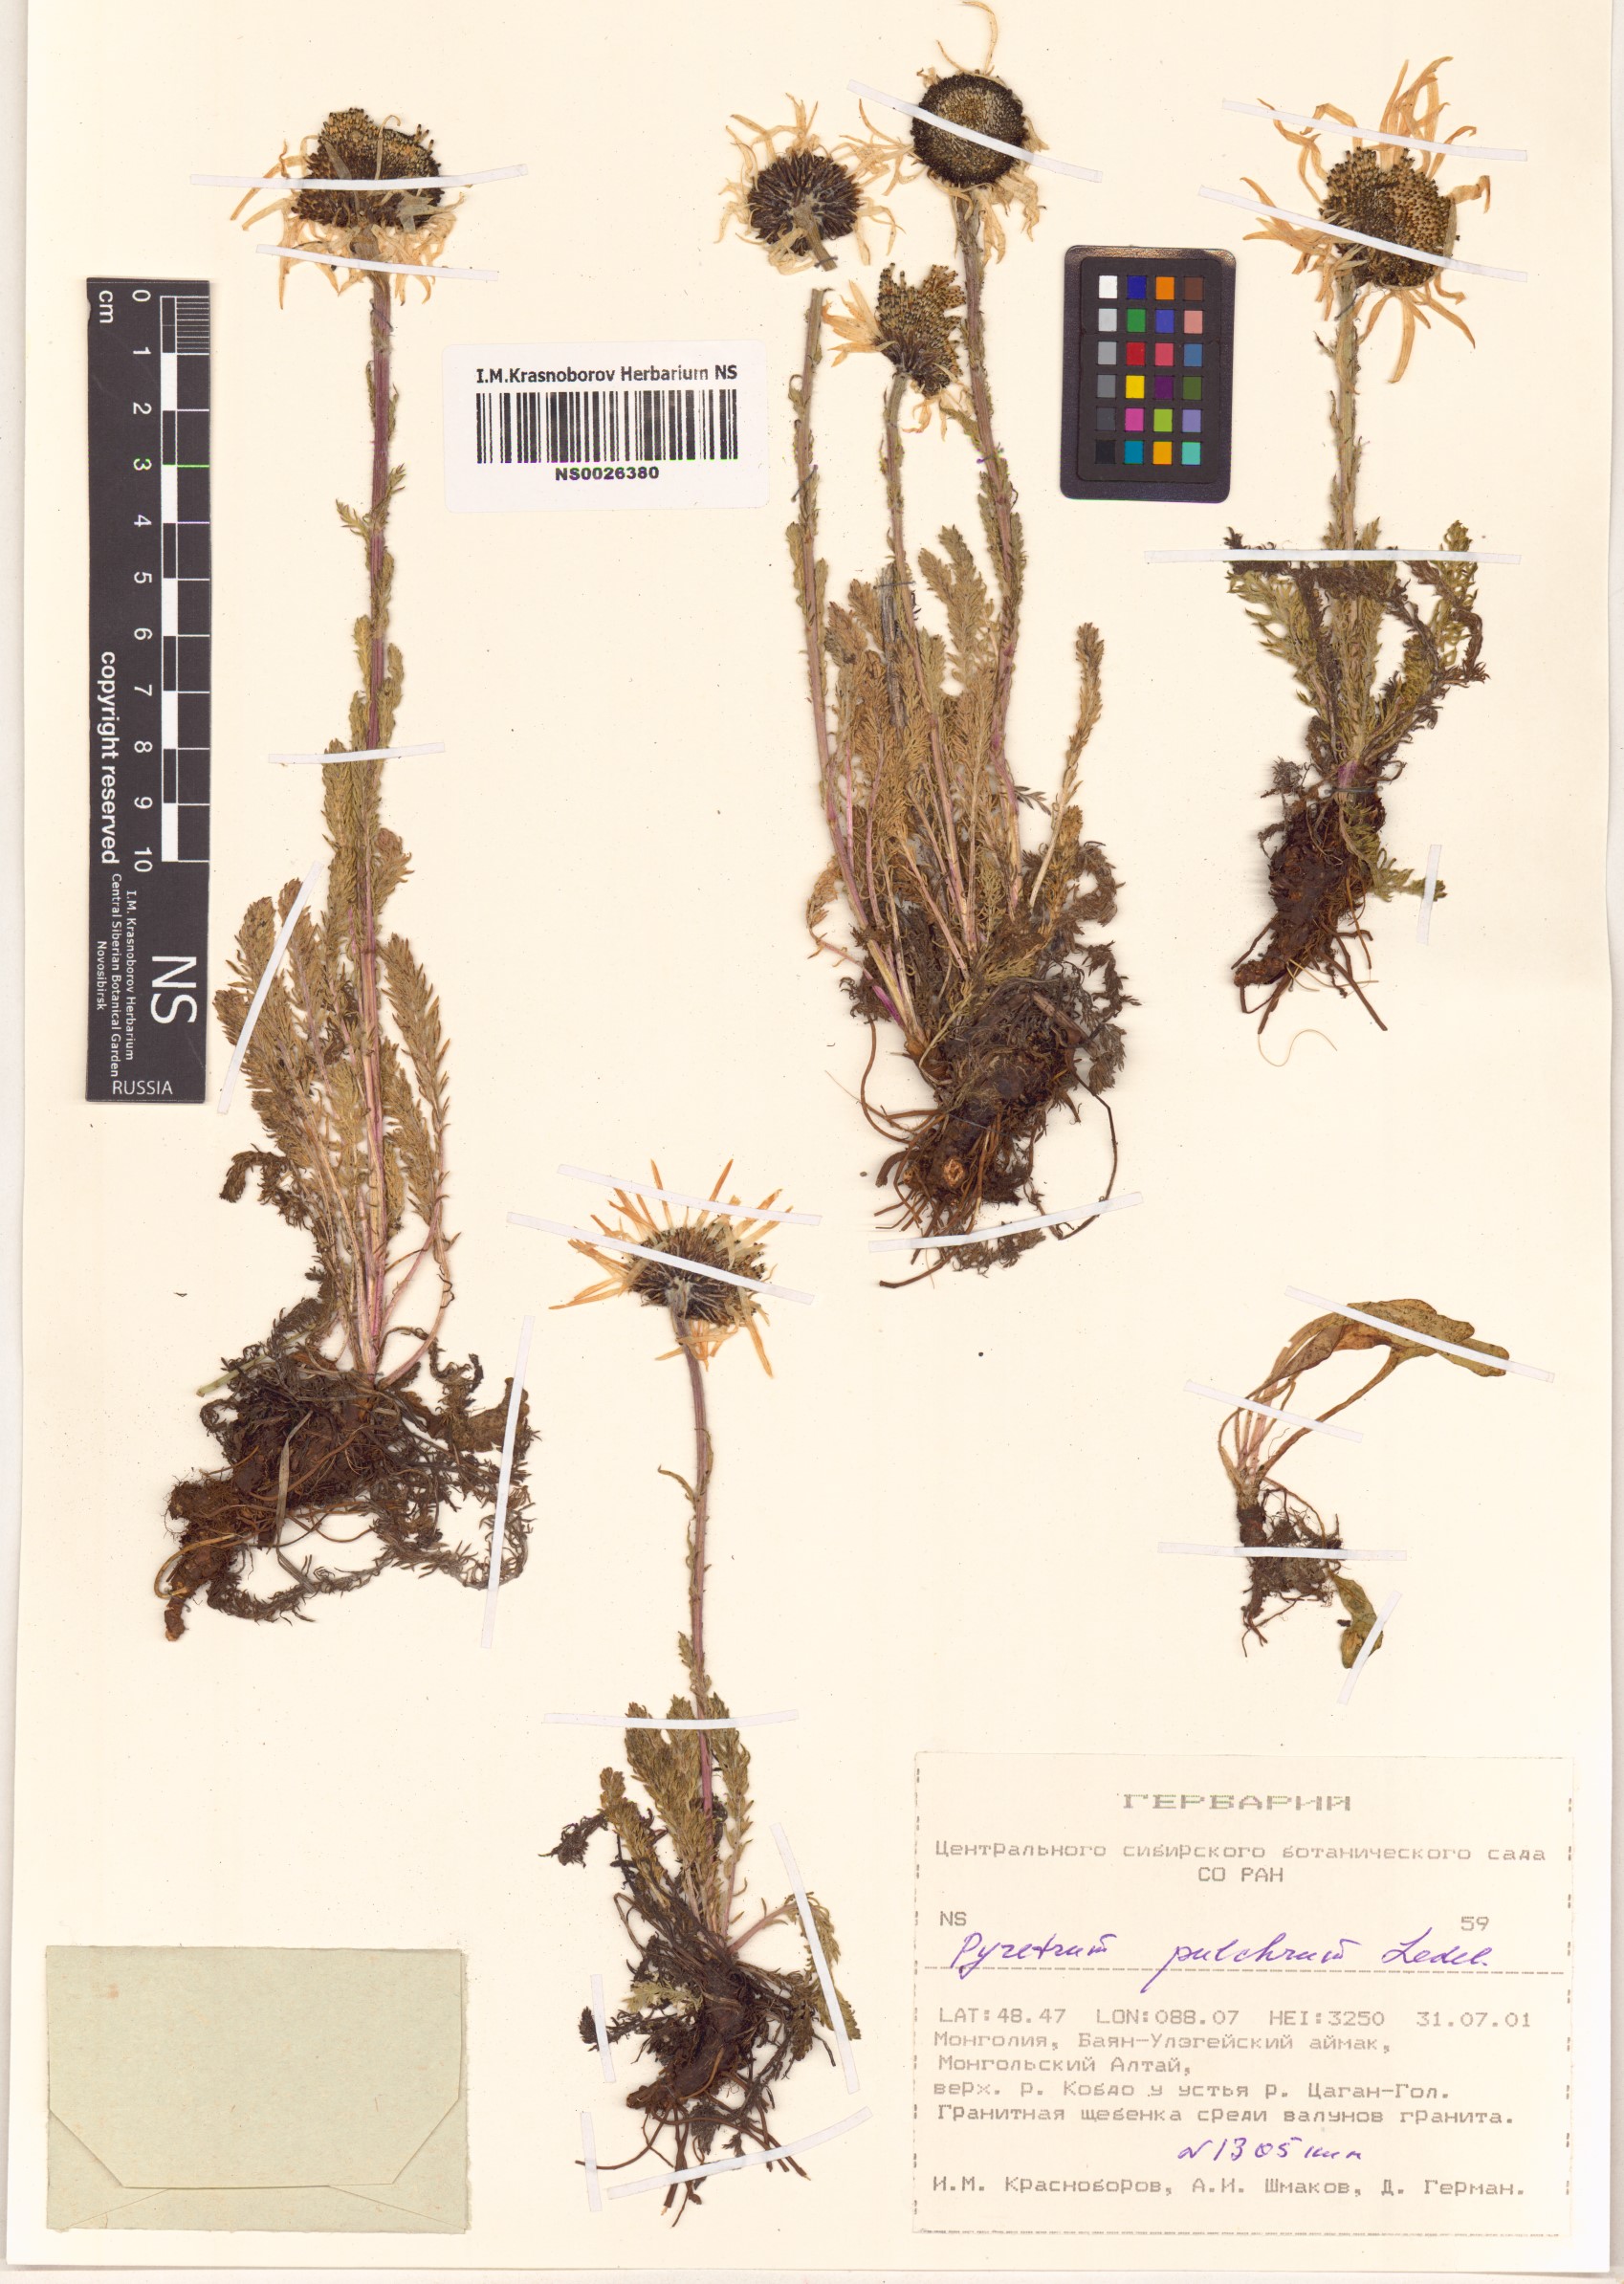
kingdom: Plantae
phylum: Tracheophyta
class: Magnoliopsida
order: Asterales
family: Asteraceae
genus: Tanacetum
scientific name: Tanacetum pulchrum
